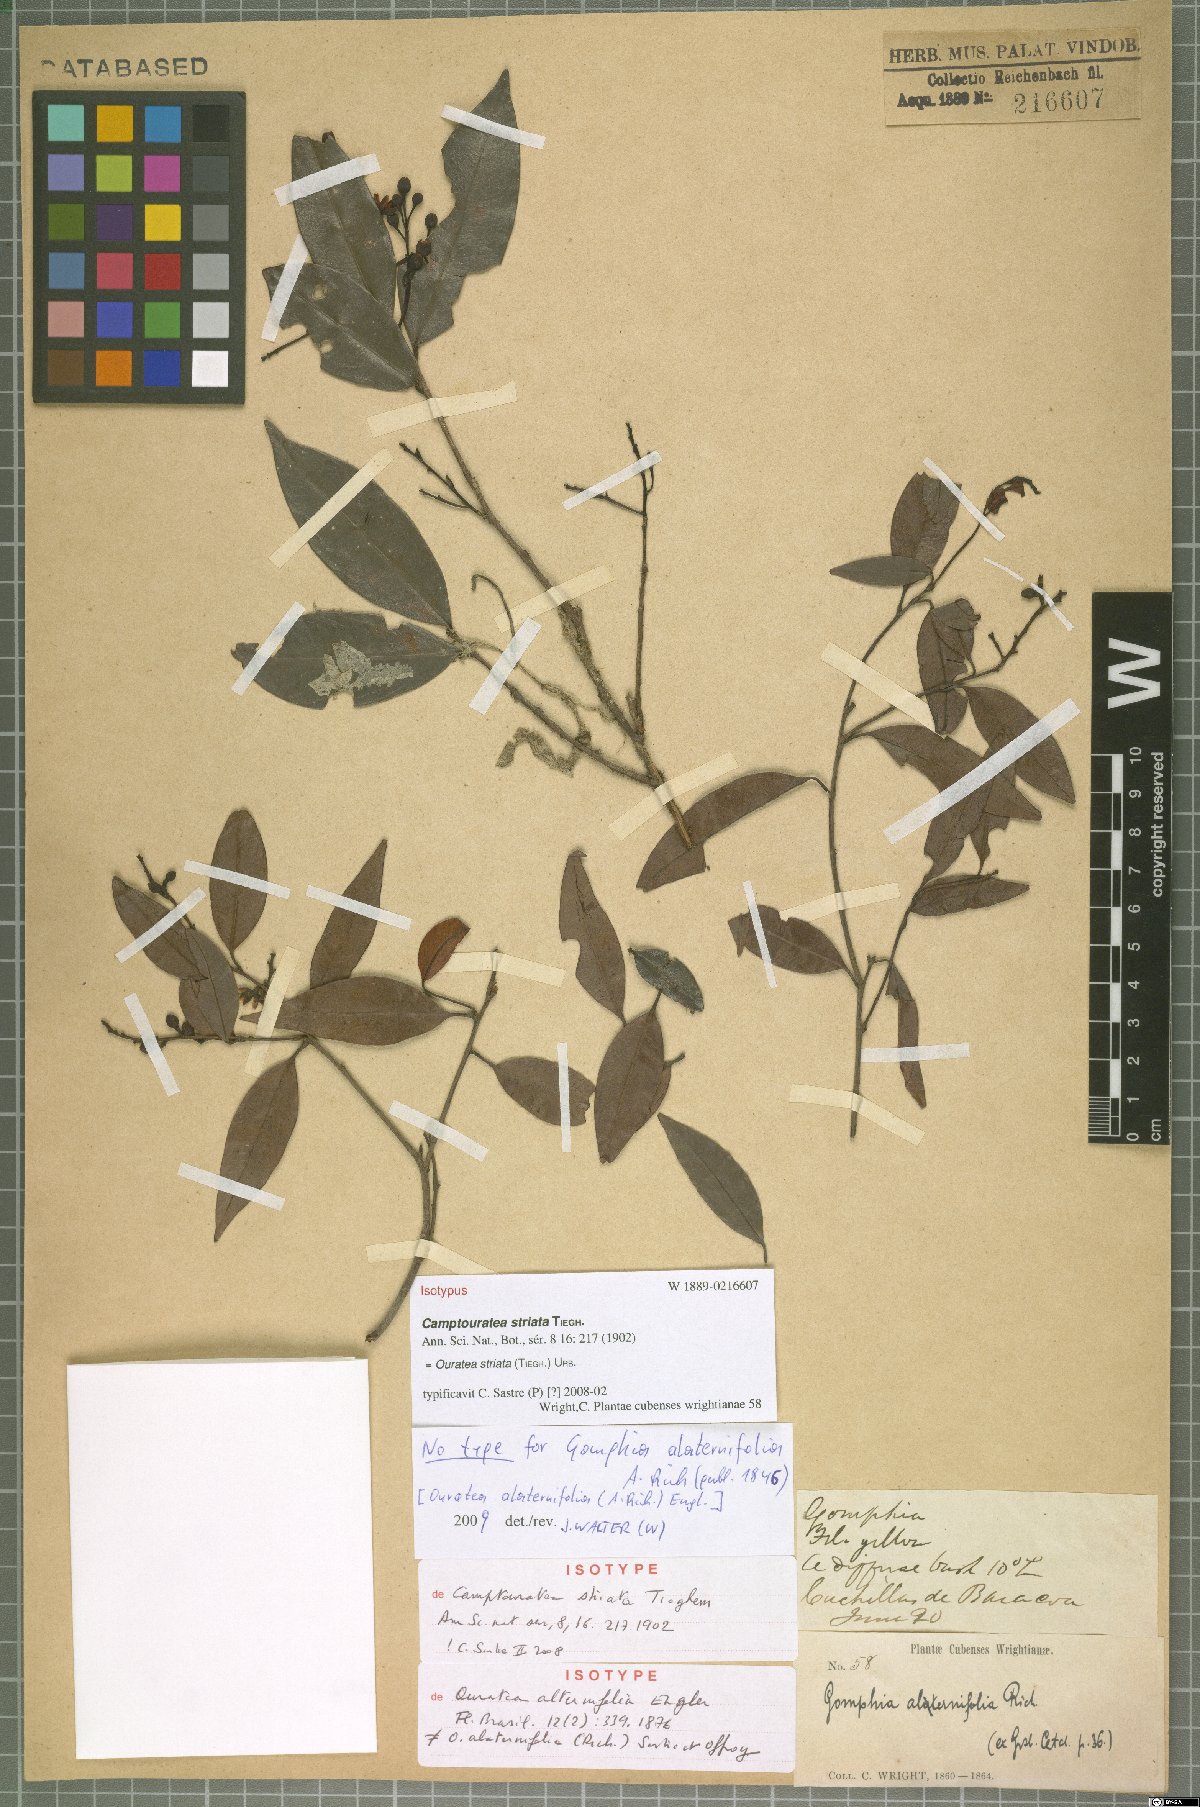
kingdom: Plantae
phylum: Tracheophyta
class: Magnoliopsida
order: Malpighiales
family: Ochnaceae
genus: Ouratea
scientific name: Ouratea striata
